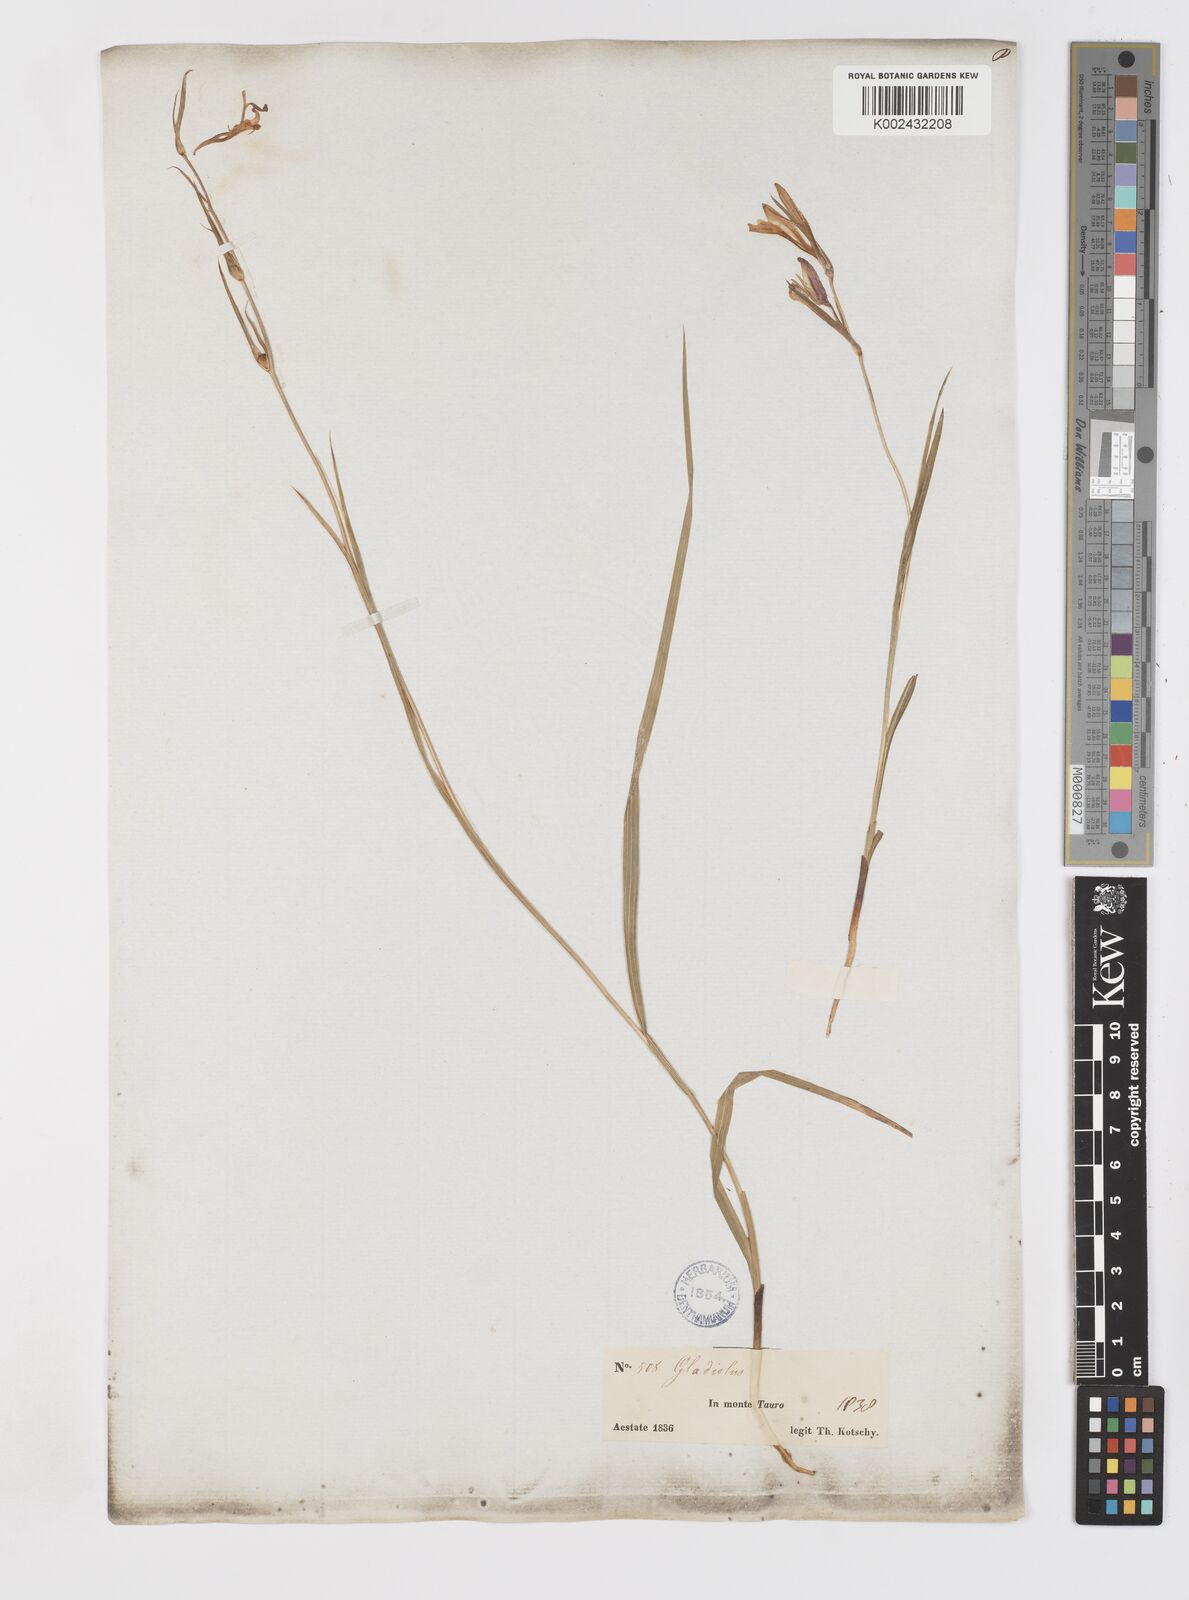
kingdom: Plantae
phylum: Tracheophyta
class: Liliopsida
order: Asparagales
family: Iridaceae
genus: Gladiolus
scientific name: Gladiolus italicus
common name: Field gladiolus
